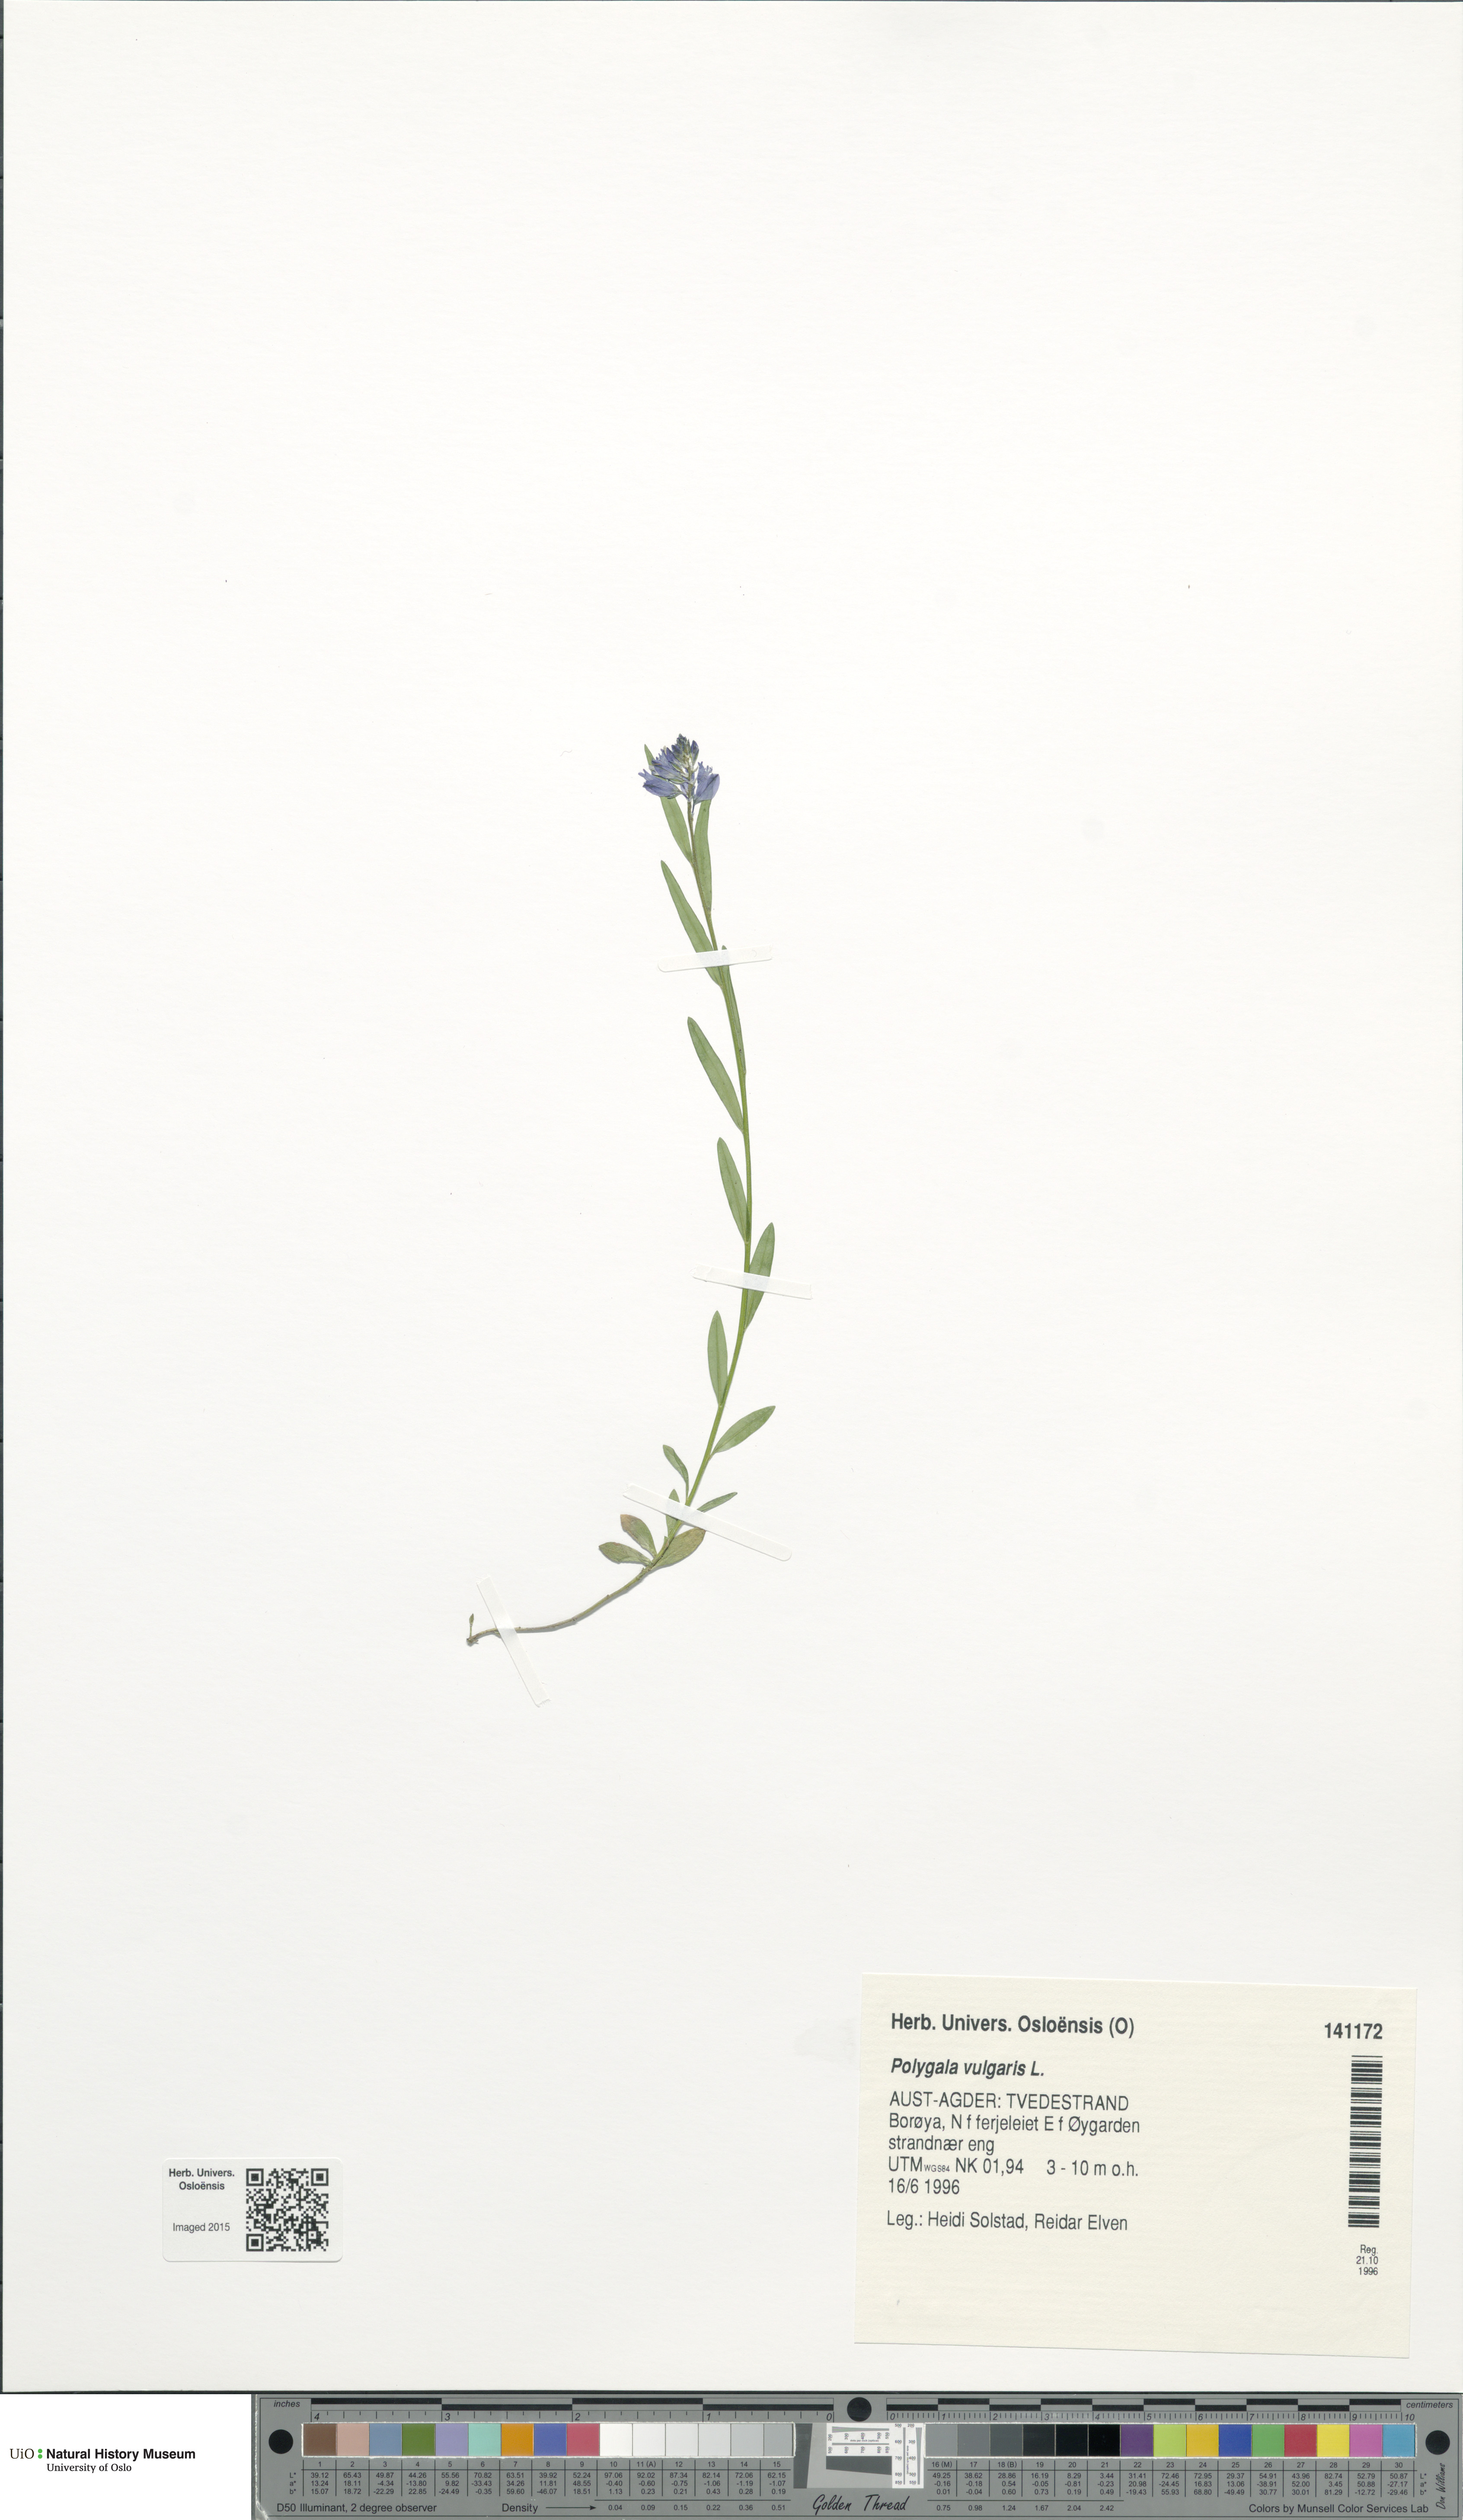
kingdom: Plantae
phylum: Tracheophyta
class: Magnoliopsida
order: Fabales
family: Polygalaceae
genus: Polygala
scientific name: Polygala vulgaris
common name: Common milkwort
